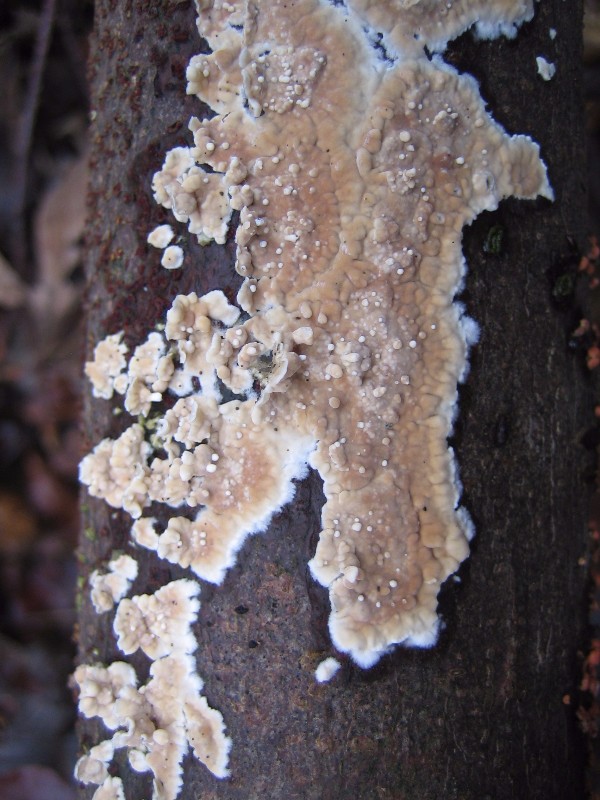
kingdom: Fungi
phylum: Basidiomycota
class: Agaricomycetes
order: Russulales
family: Peniophoraceae
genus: Peniophora
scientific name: Peniophora incarnata
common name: laksefarvet voksskind
